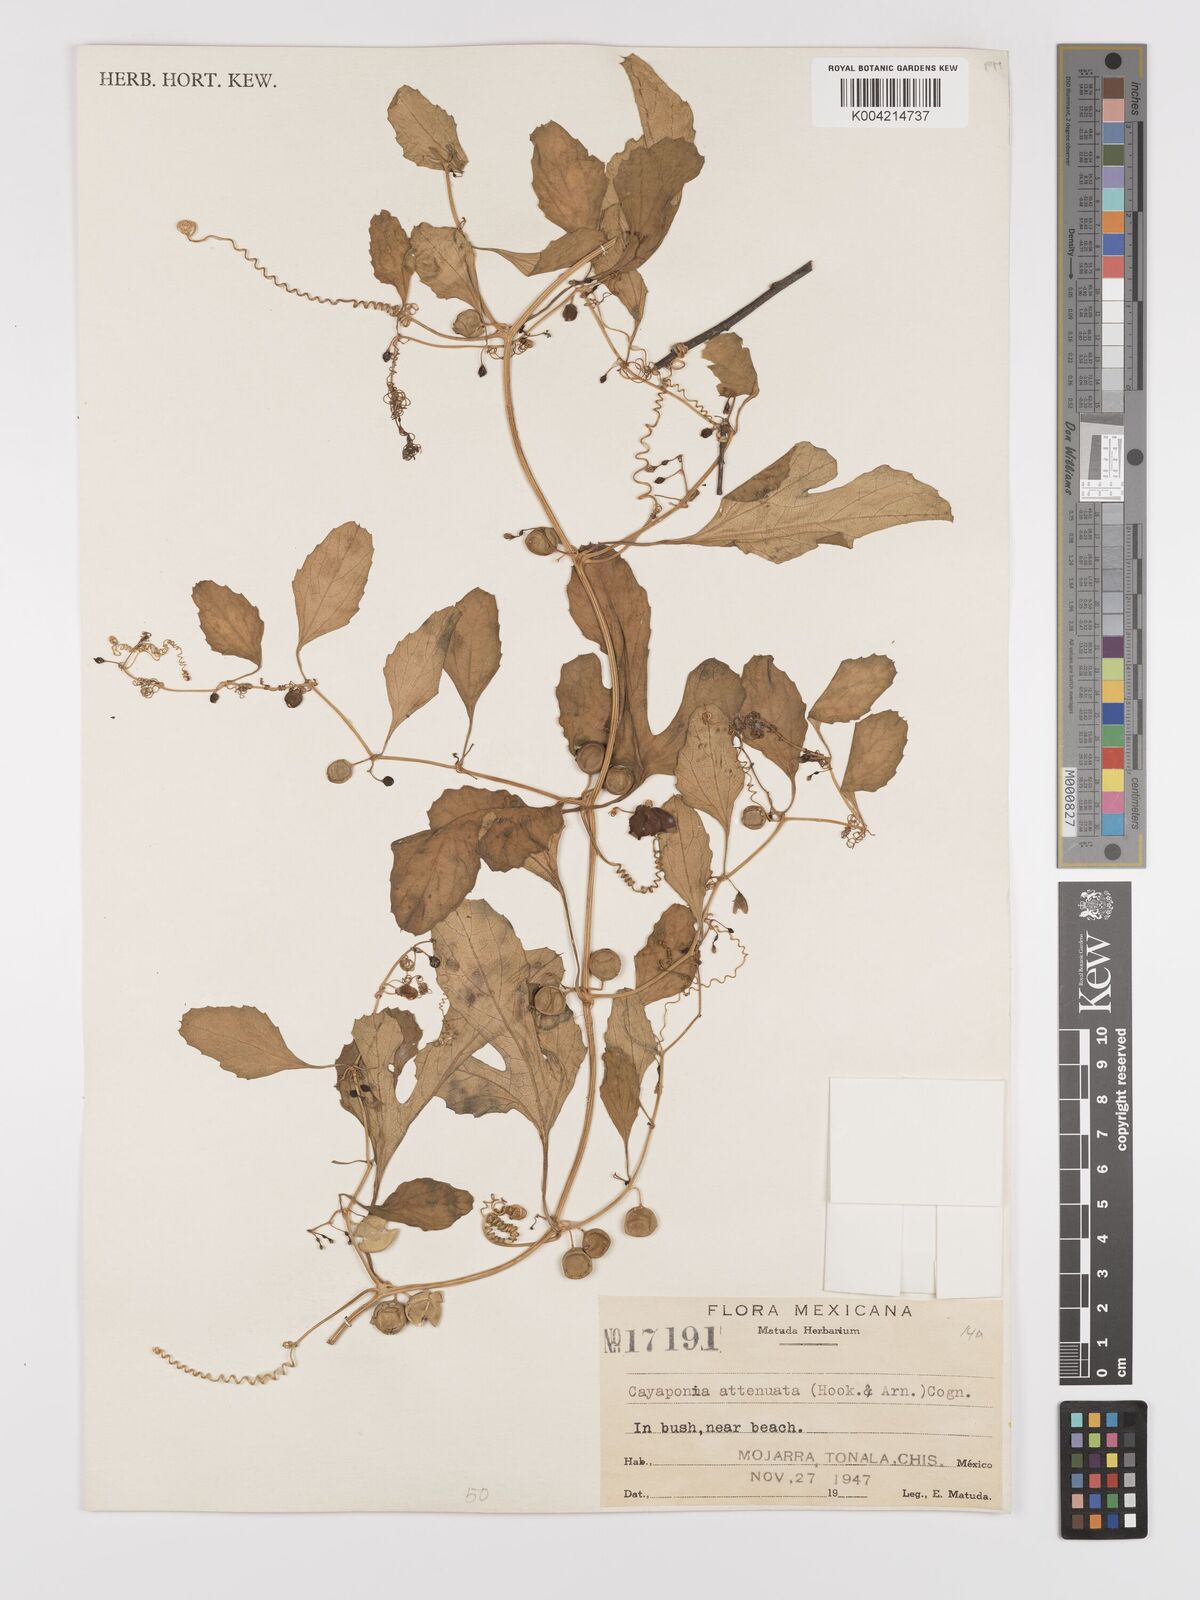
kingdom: Plantae
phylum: Tracheophyta
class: Magnoliopsida
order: Cucurbitales
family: Cucurbitaceae
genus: Cayaponia
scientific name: Cayaponia attenuata
